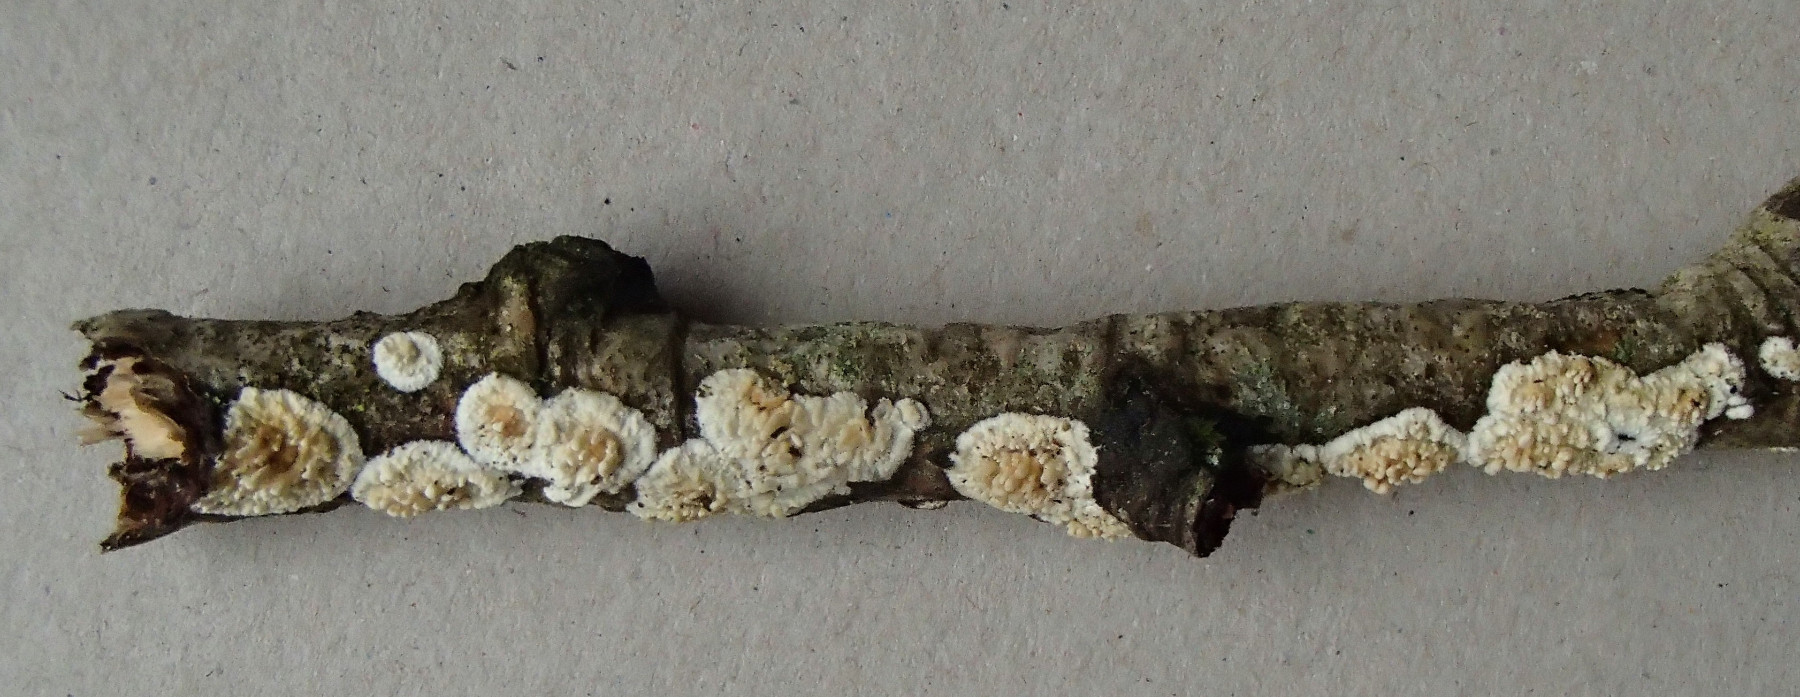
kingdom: Fungi
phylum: Basidiomycota
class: Agaricomycetes
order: Hymenochaetales
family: Schizoporaceae
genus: Xylodon
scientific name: Xylodon radula
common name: grovtandet kalkskind
